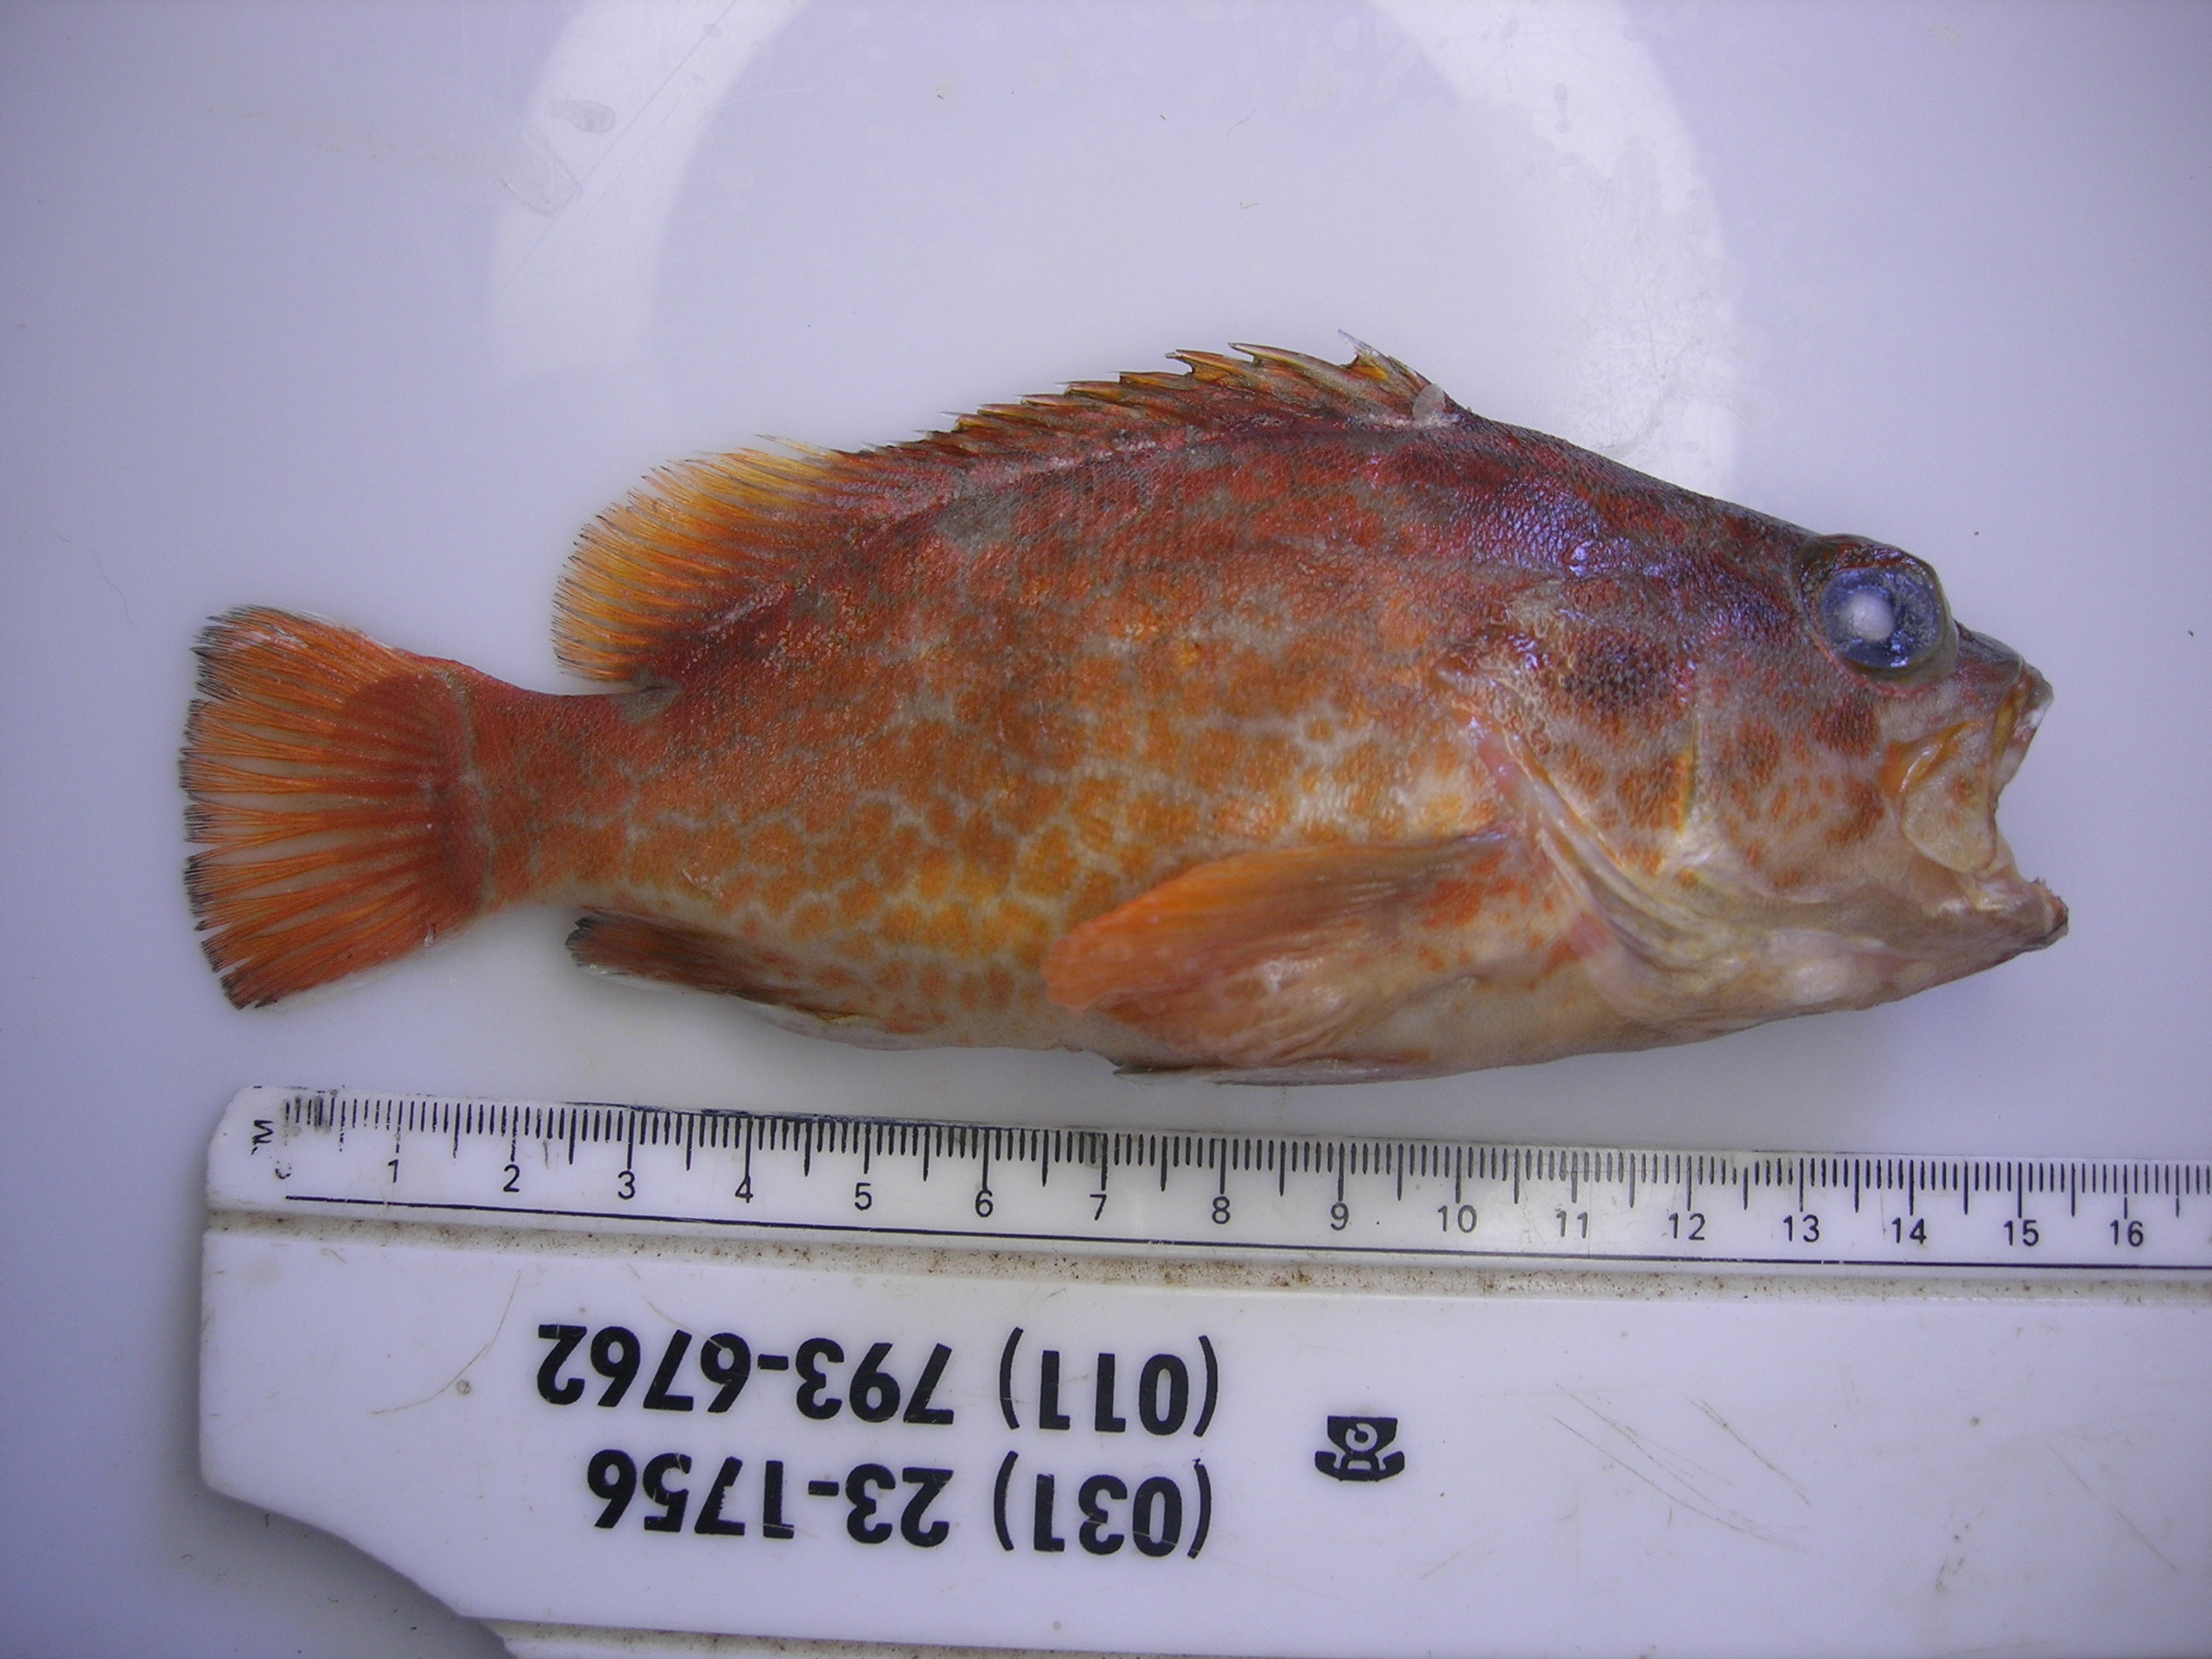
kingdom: Animalia
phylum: Chordata
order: Perciformes
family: Serranidae
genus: Acanthistius
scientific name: Acanthistius joanae
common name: Scalyjaw koester
